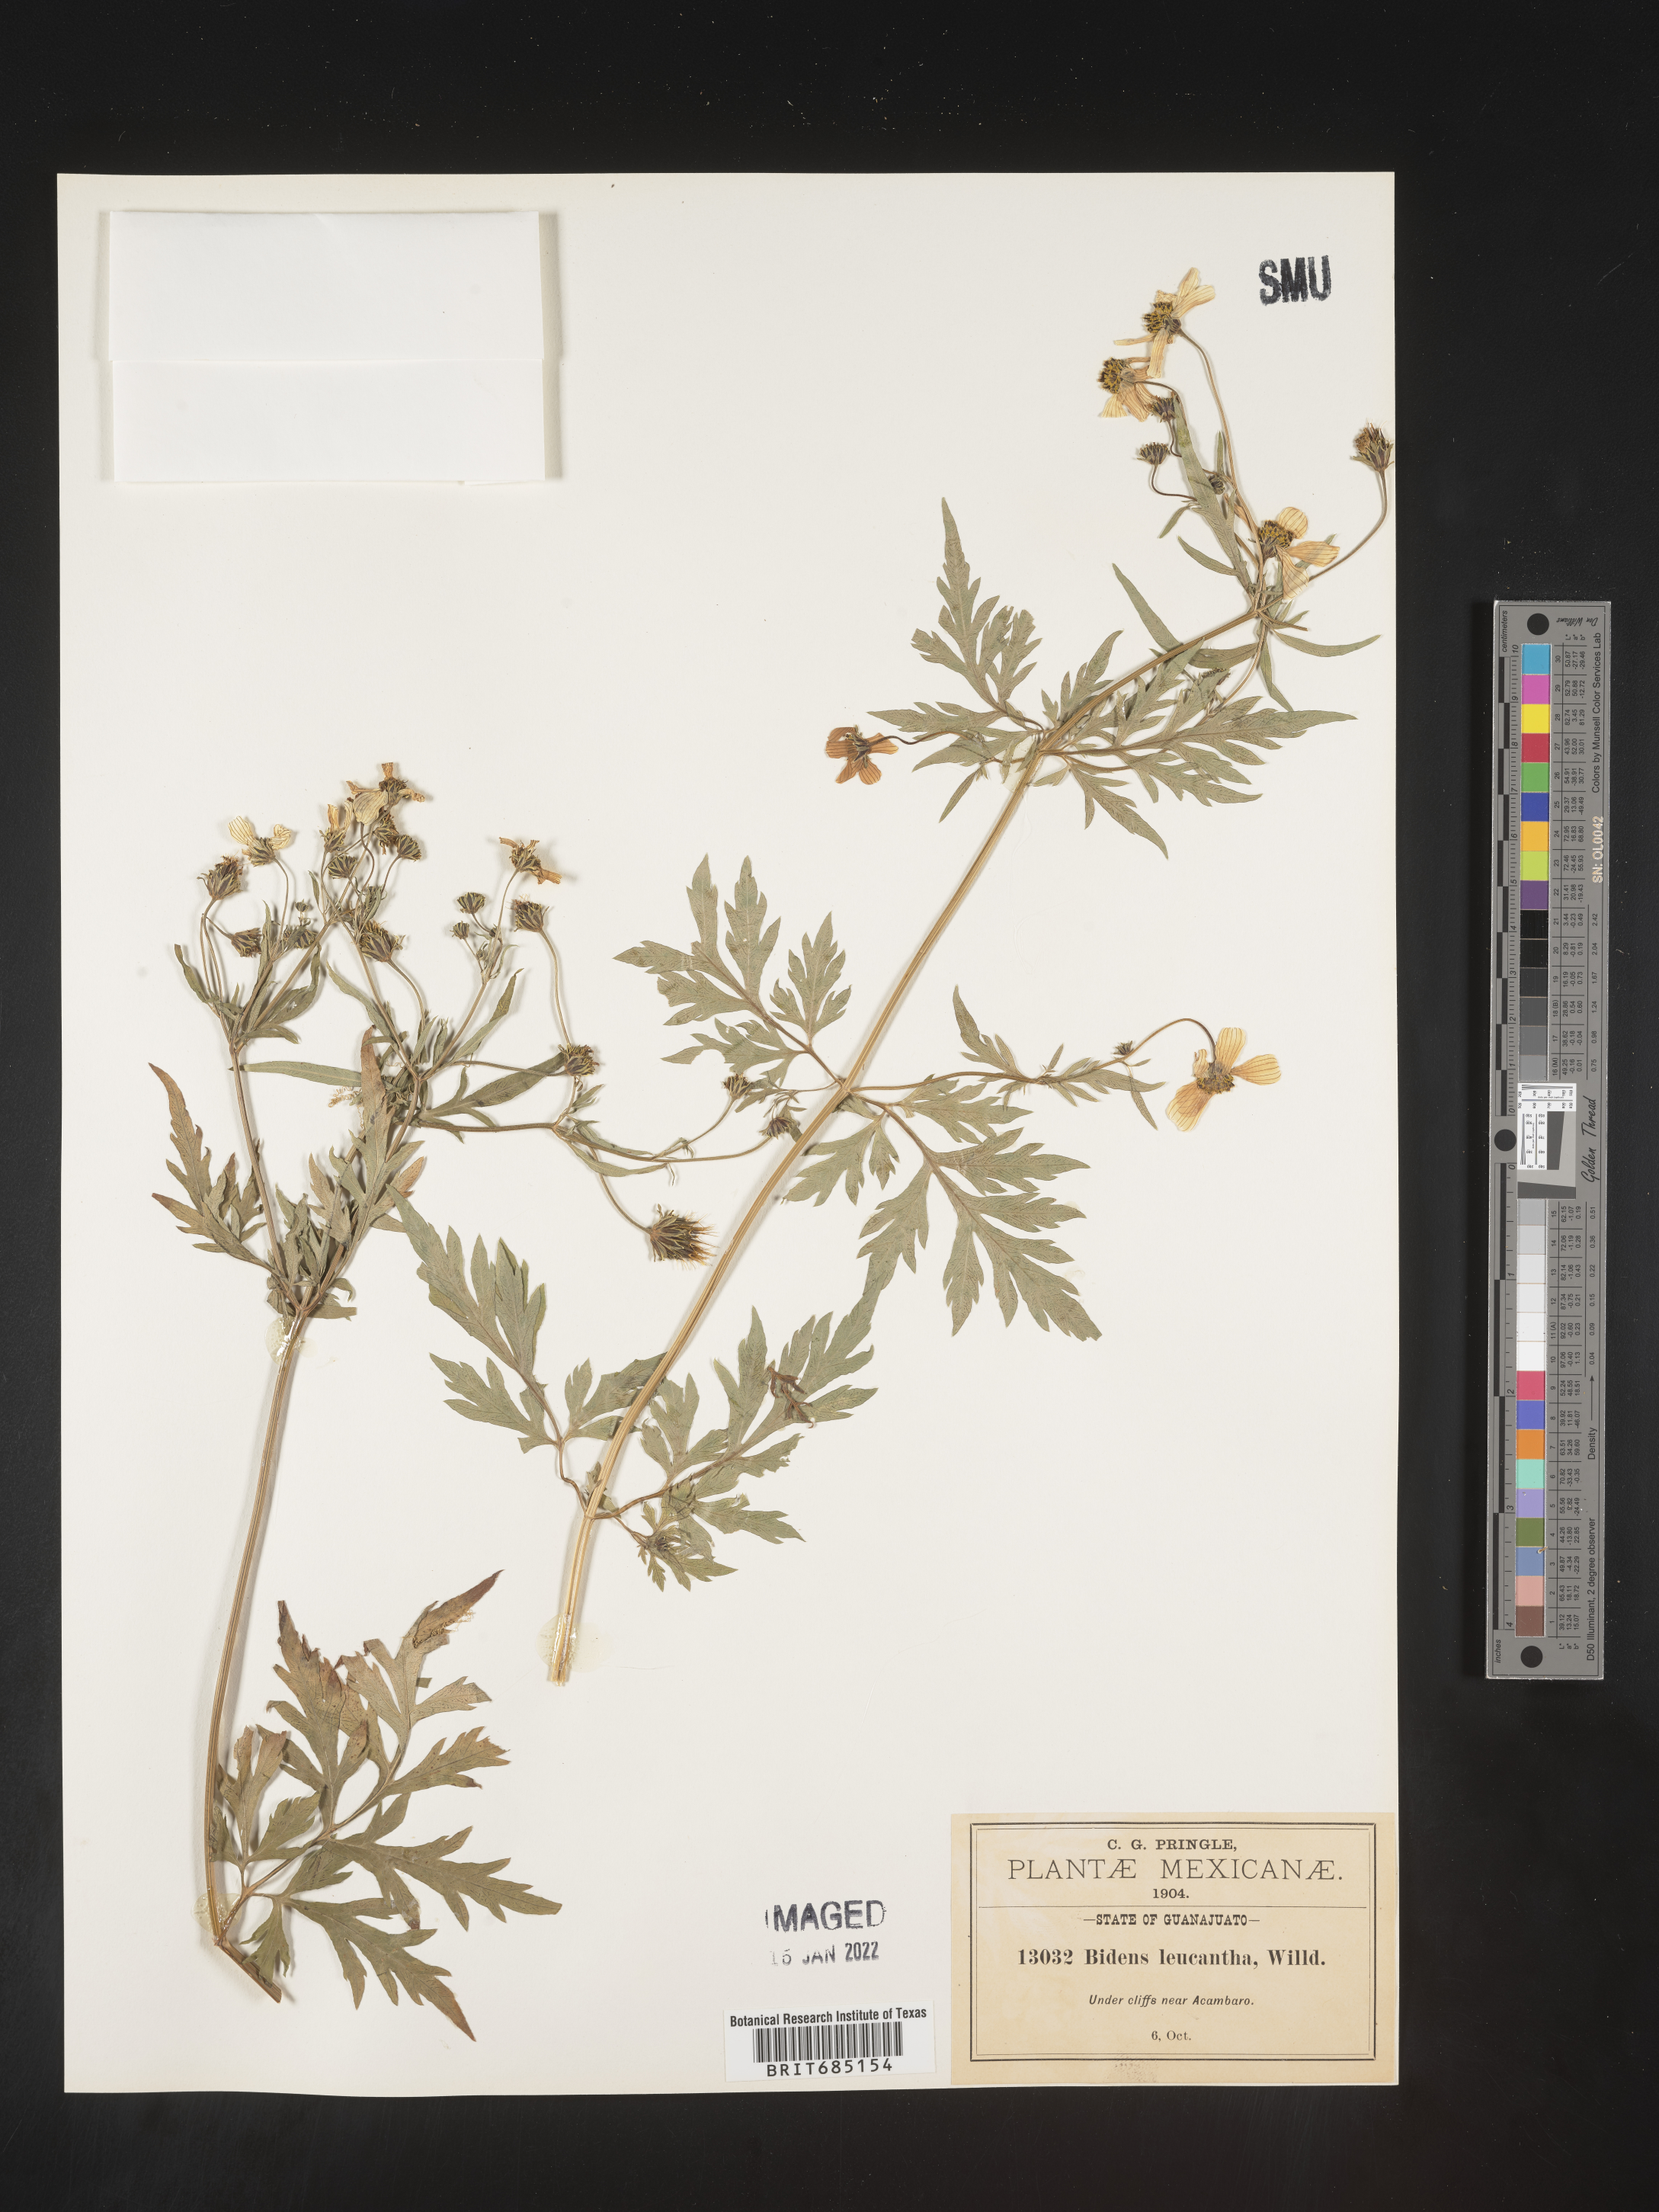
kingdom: Plantae
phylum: Tracheophyta
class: Magnoliopsida
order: Asterales
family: Asteraceae
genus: Bidens
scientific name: Bidens
